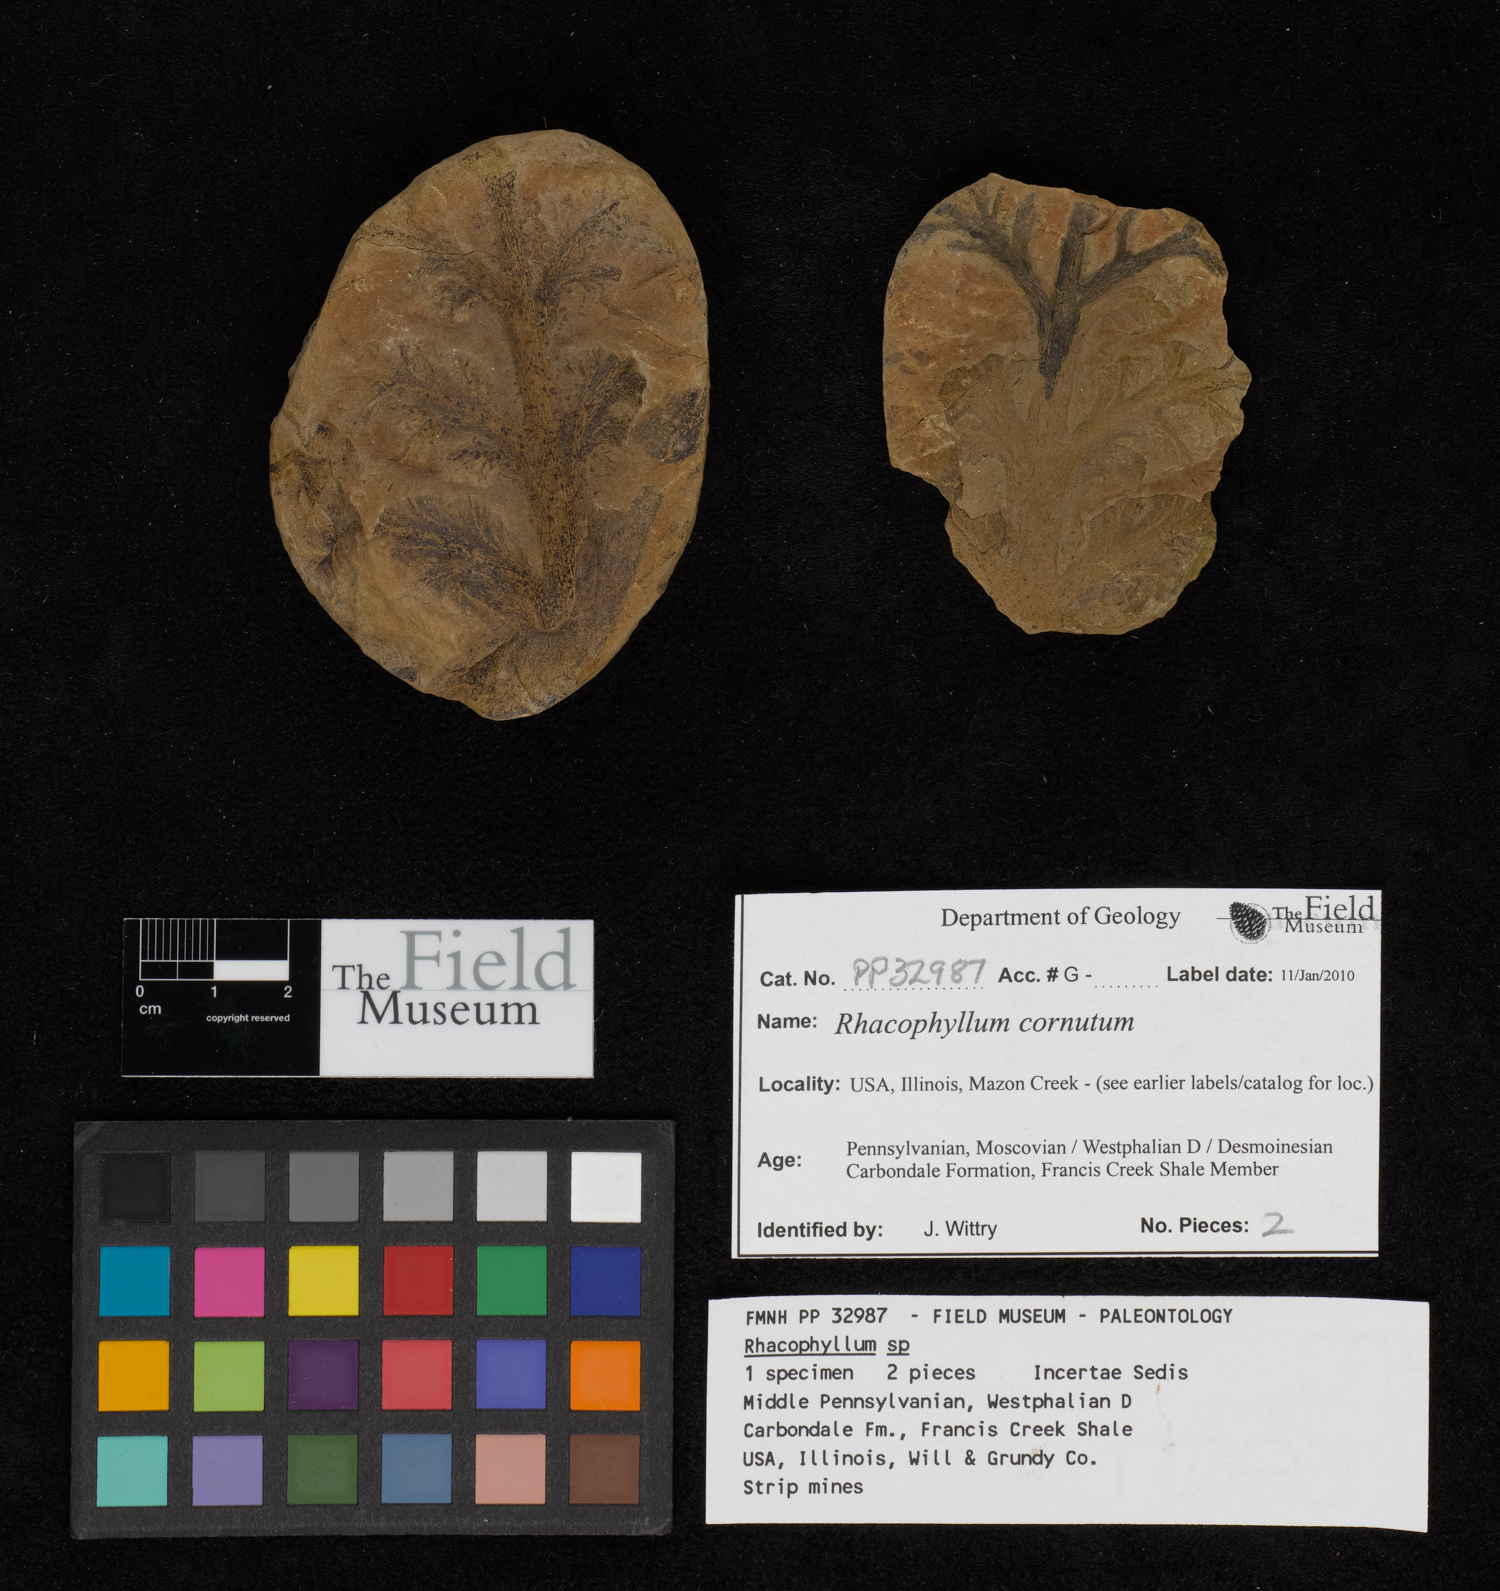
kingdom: Plantae
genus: Rhacophyllum
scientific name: Rhacophyllum
